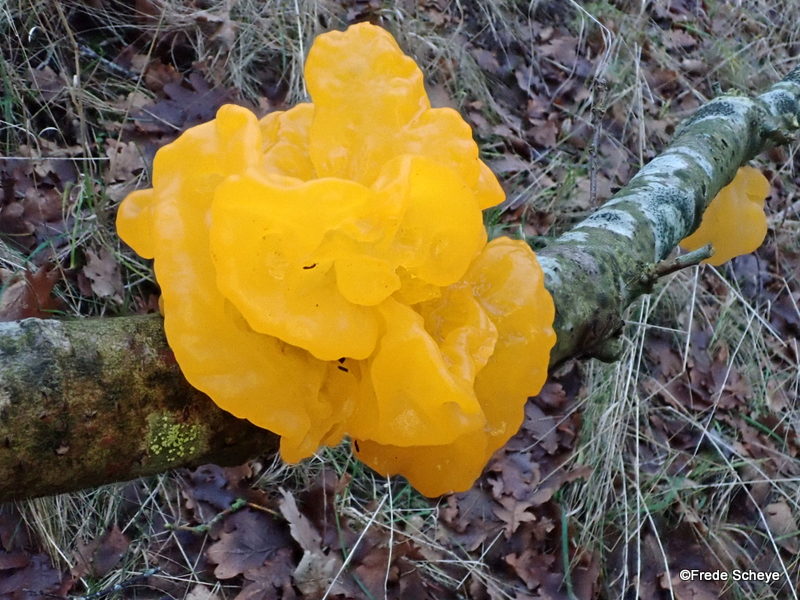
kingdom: Fungi
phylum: Basidiomycota
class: Tremellomycetes
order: Tremellales
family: Tremellaceae
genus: Tremella
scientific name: Tremella mesenterica
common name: gul bævresvamp
